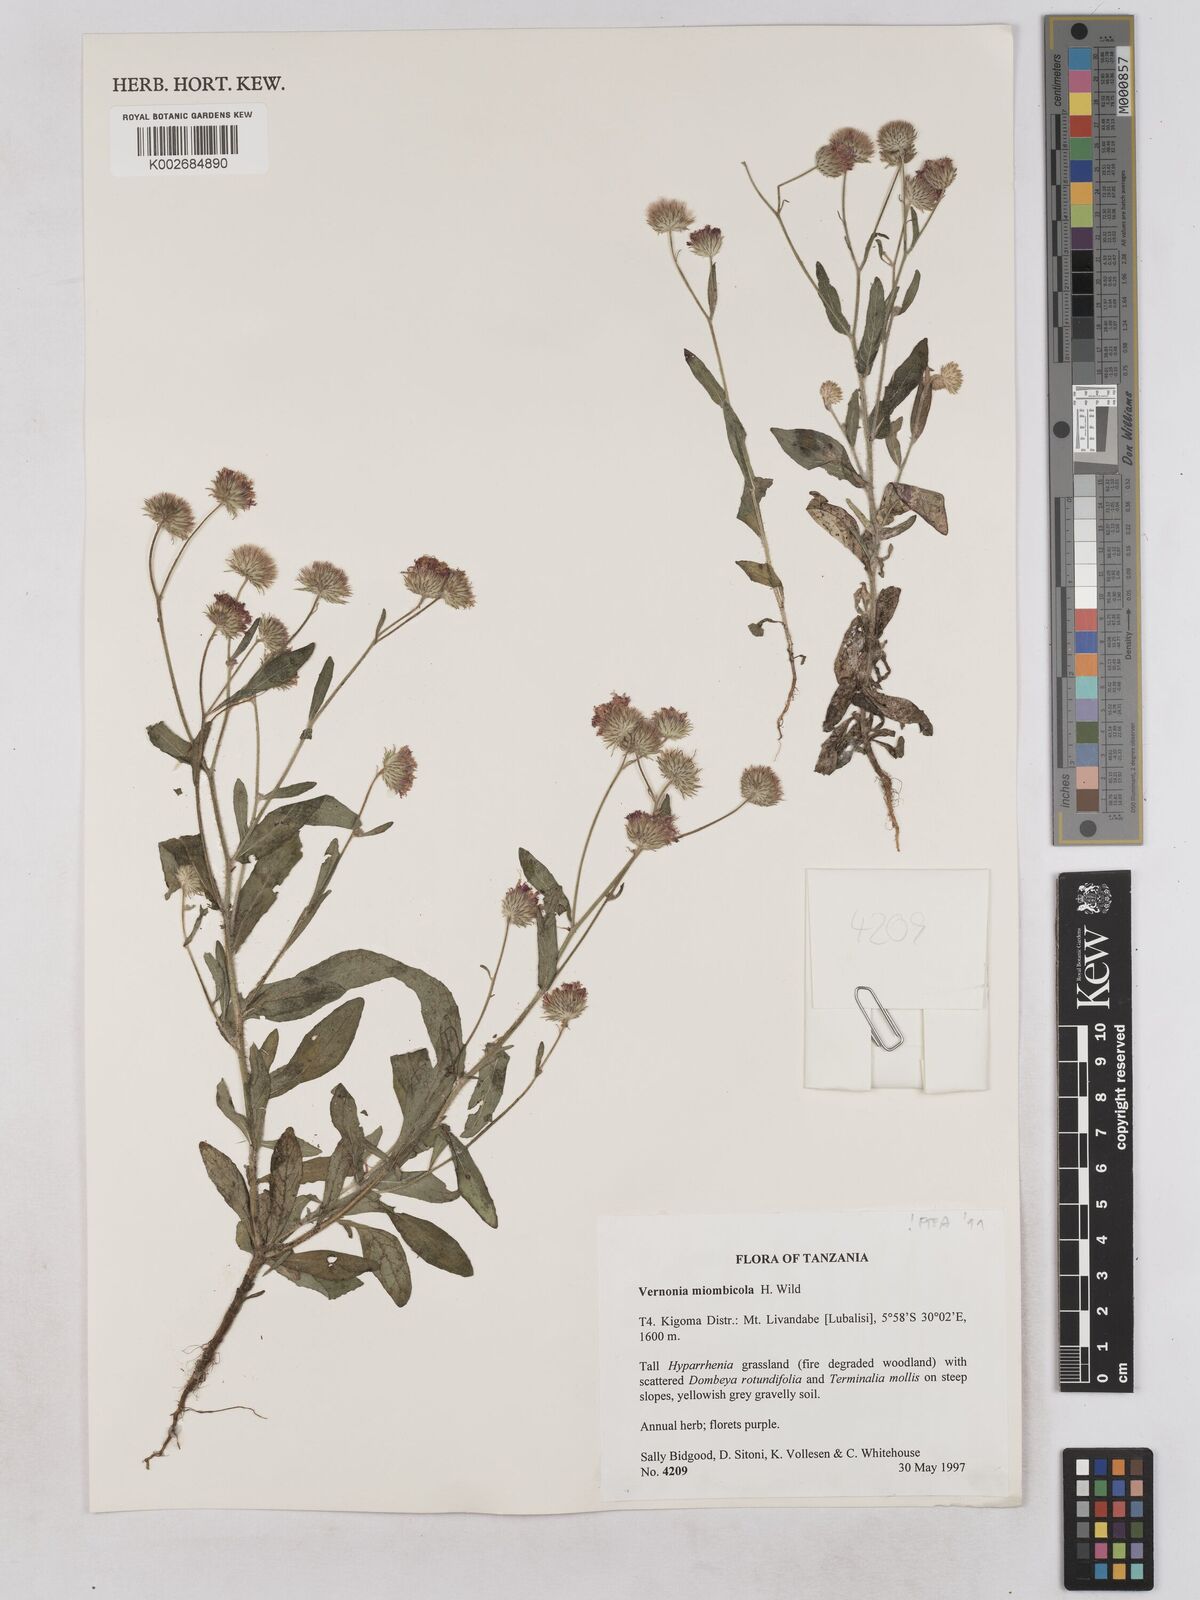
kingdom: Plantae
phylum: Tracheophyta
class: Magnoliopsida
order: Asterales
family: Asteraceae
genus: Vernonia
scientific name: Vernonia miombicola
